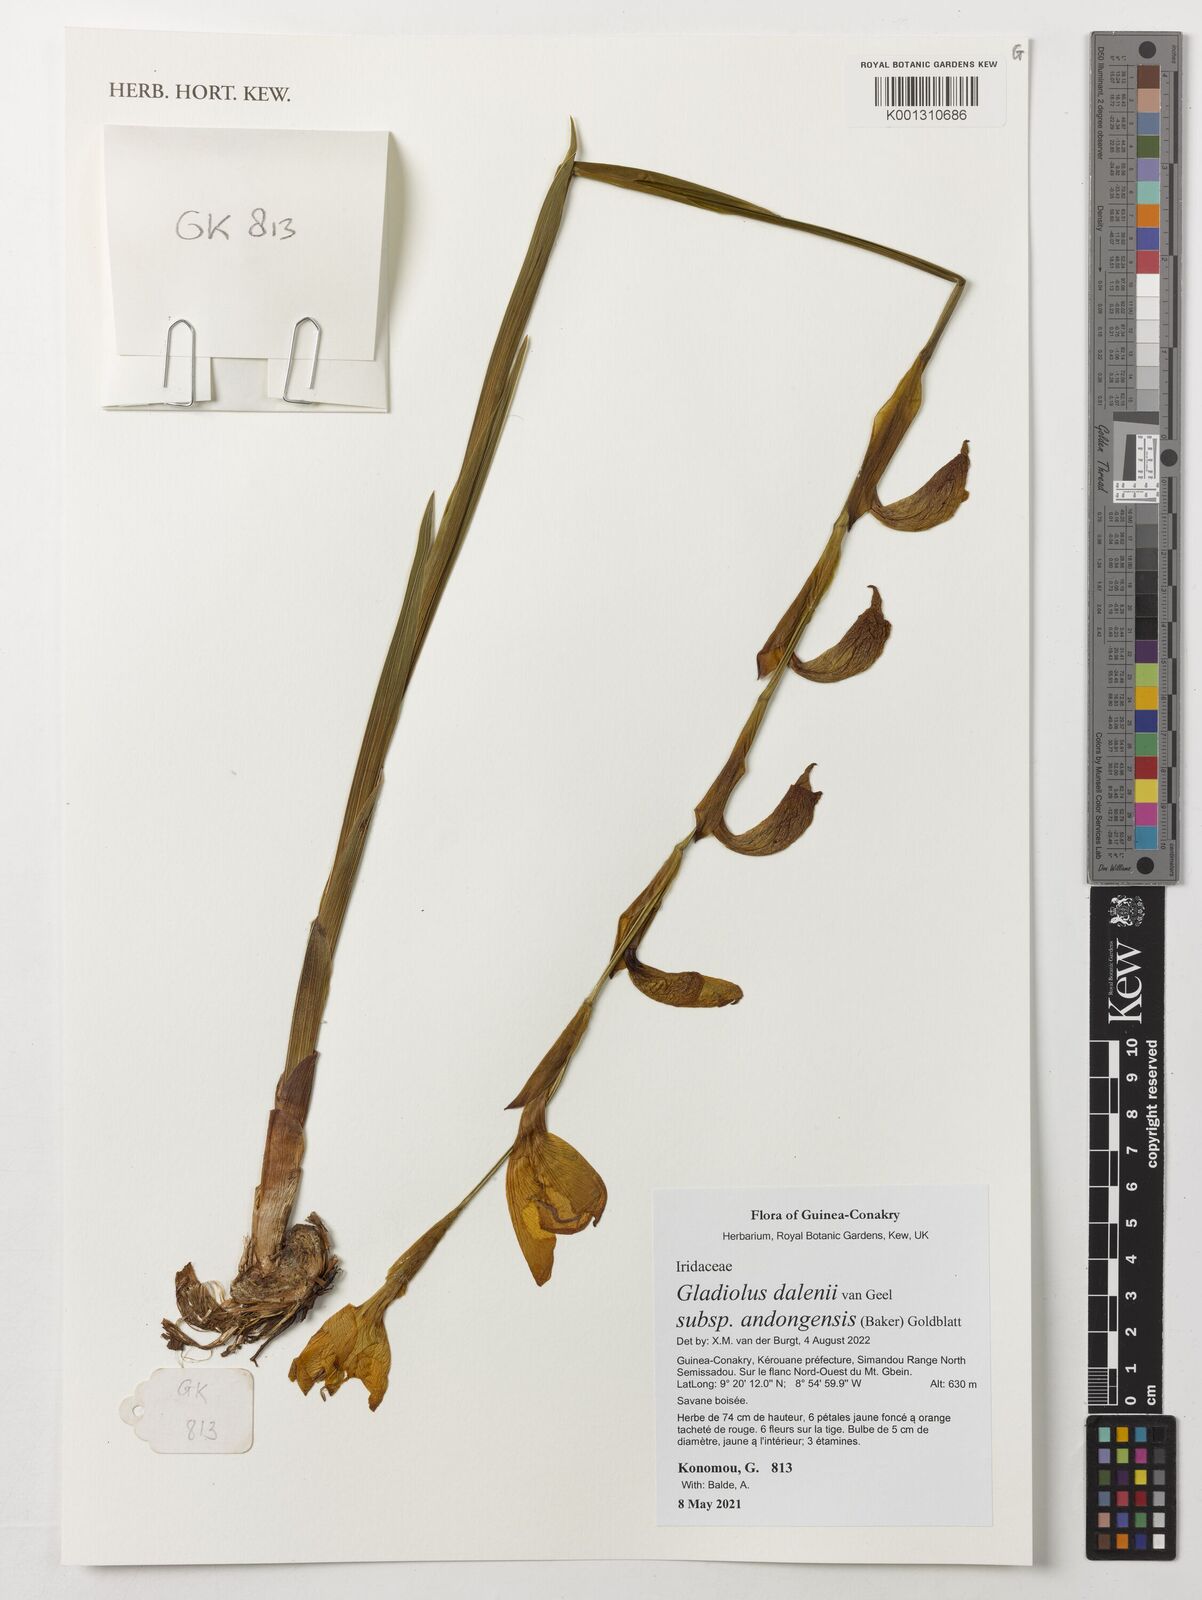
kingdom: Plantae
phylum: Tracheophyta
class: Liliopsida
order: Asparagales
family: Iridaceae
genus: Gladiolus
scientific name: Gladiolus dalenii
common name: Cornflag
